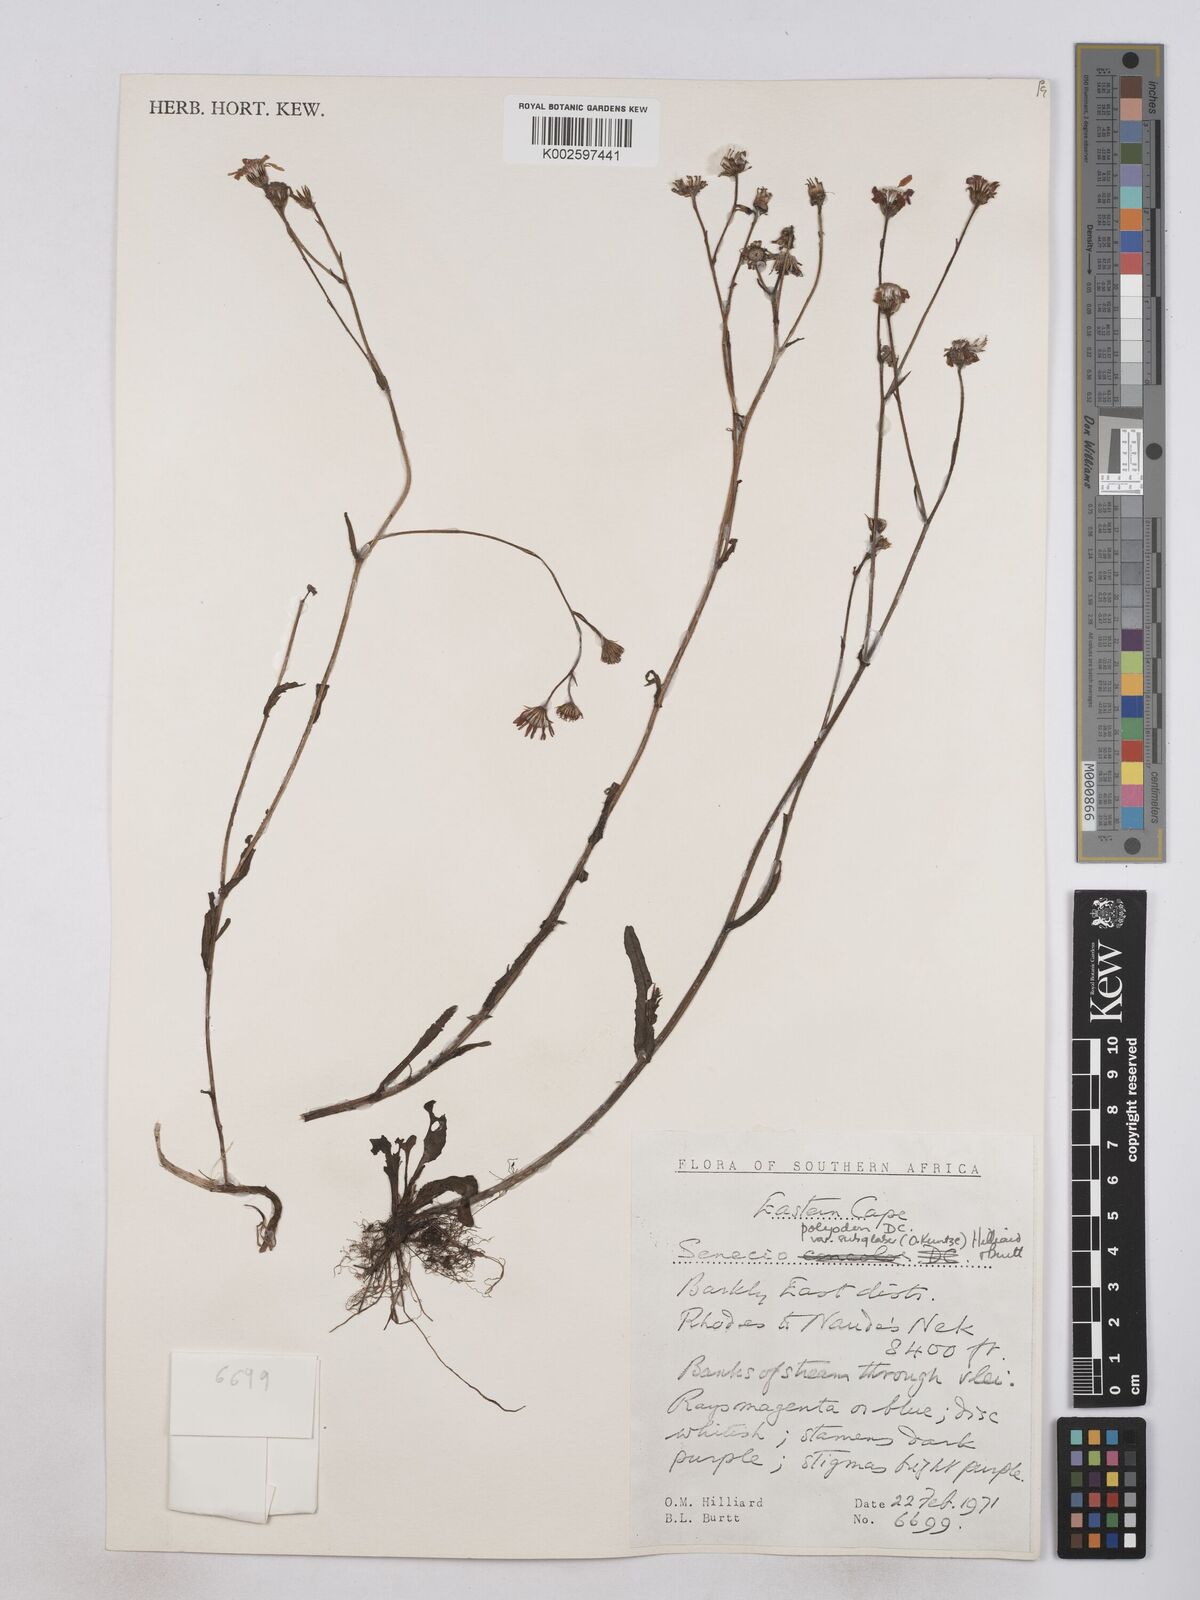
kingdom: Plantae
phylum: Tracheophyta
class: Magnoliopsida
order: Asterales
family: Asteraceae
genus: Senecio
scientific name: Senecio polyodon
